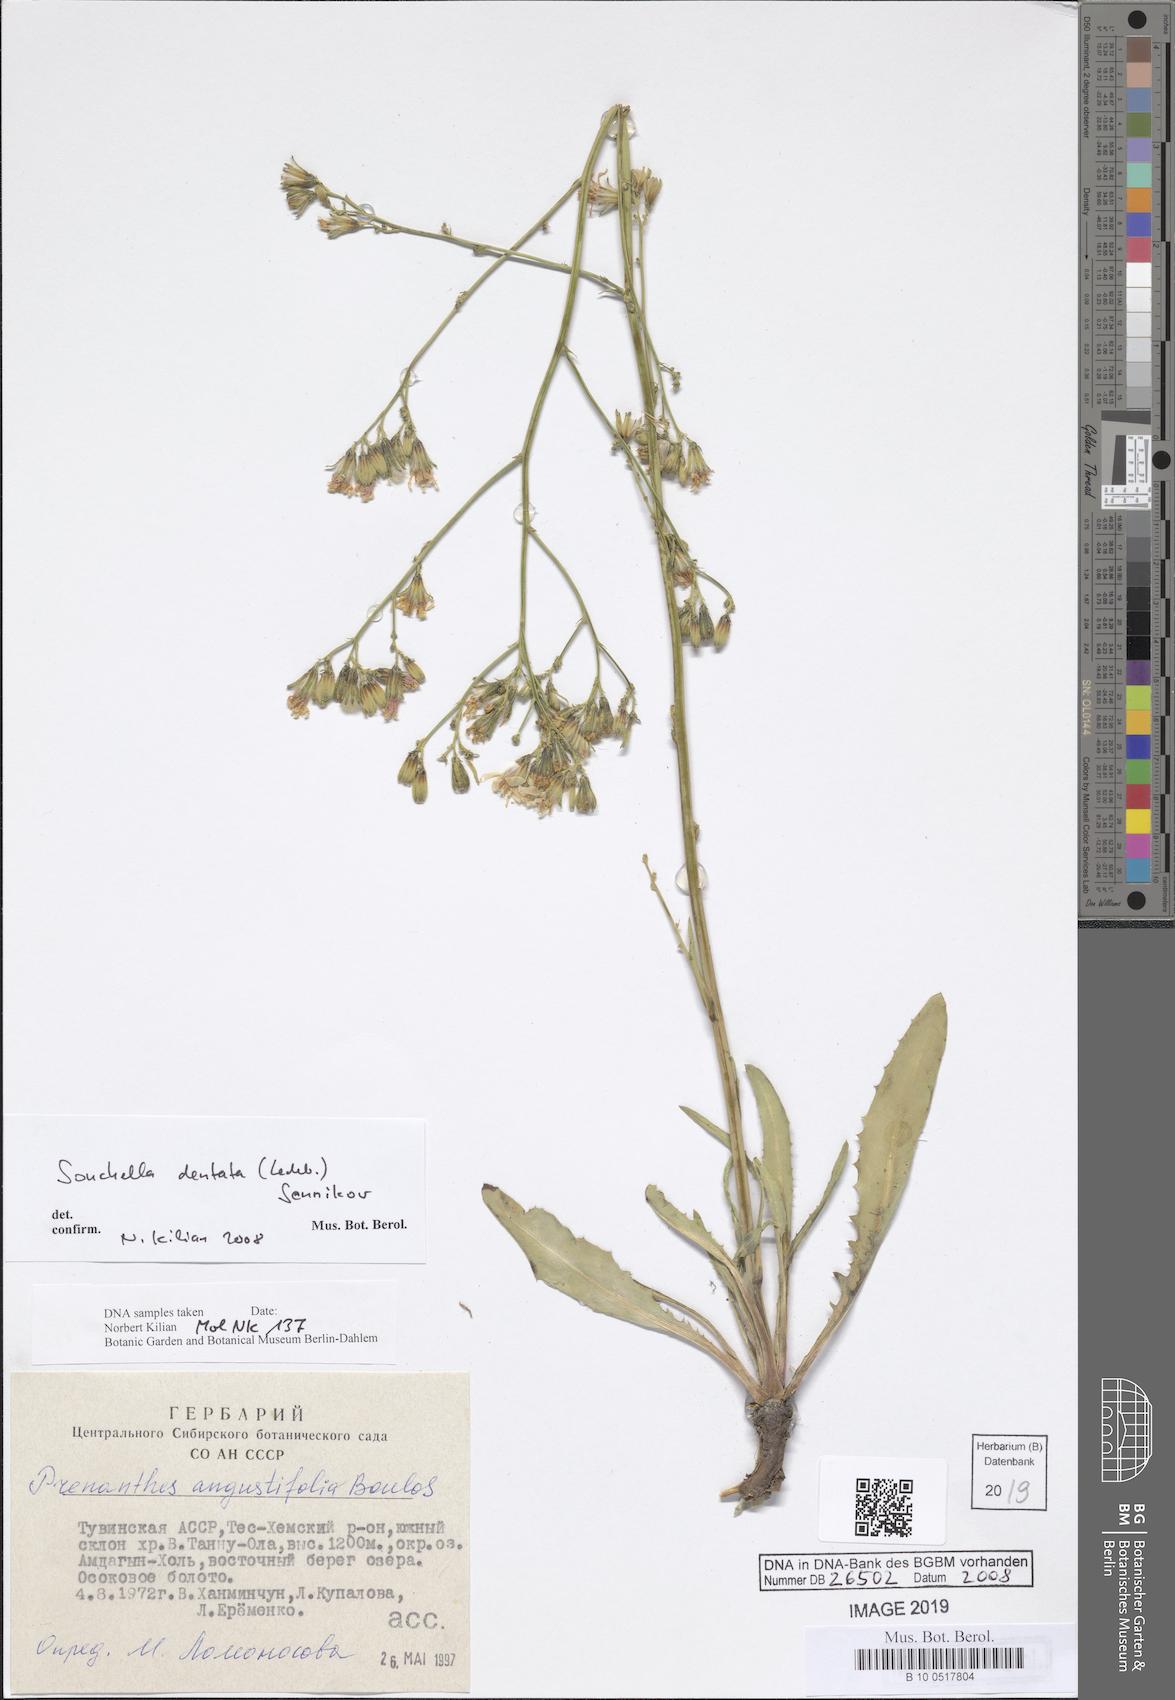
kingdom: Plantae
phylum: Tracheophyta
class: Magnoliopsida
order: Asterales
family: Asteraceae
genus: Sonchella
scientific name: Sonchella dentata
